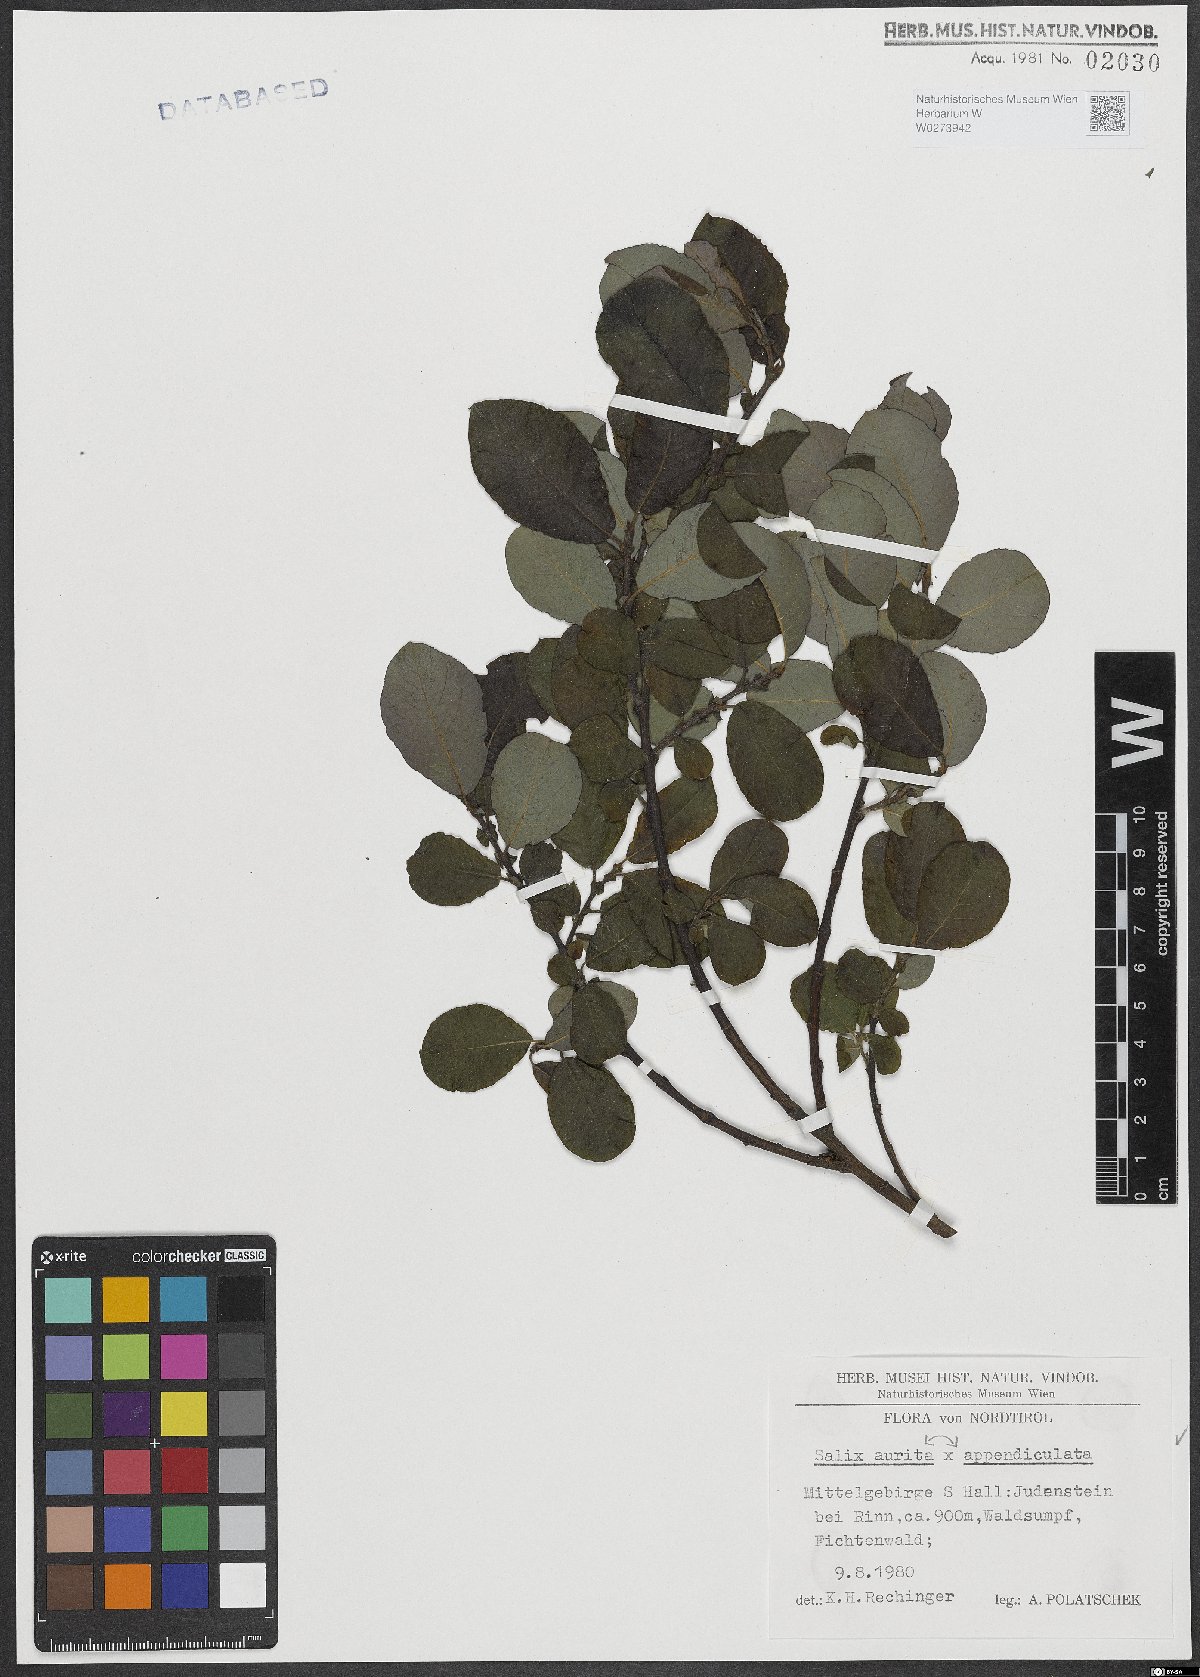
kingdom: Plantae
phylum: Tracheophyta
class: Magnoliopsida
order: Malpighiales
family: Salicaceae
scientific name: Salicaceae
